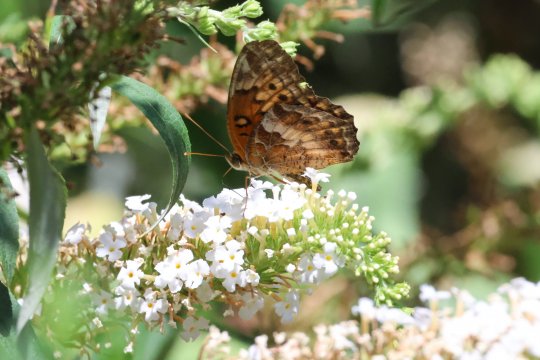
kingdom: Animalia
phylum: Arthropoda
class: Insecta
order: Lepidoptera
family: Nymphalidae
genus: Euptoieta
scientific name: Euptoieta claudia
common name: Variegated Fritillary
